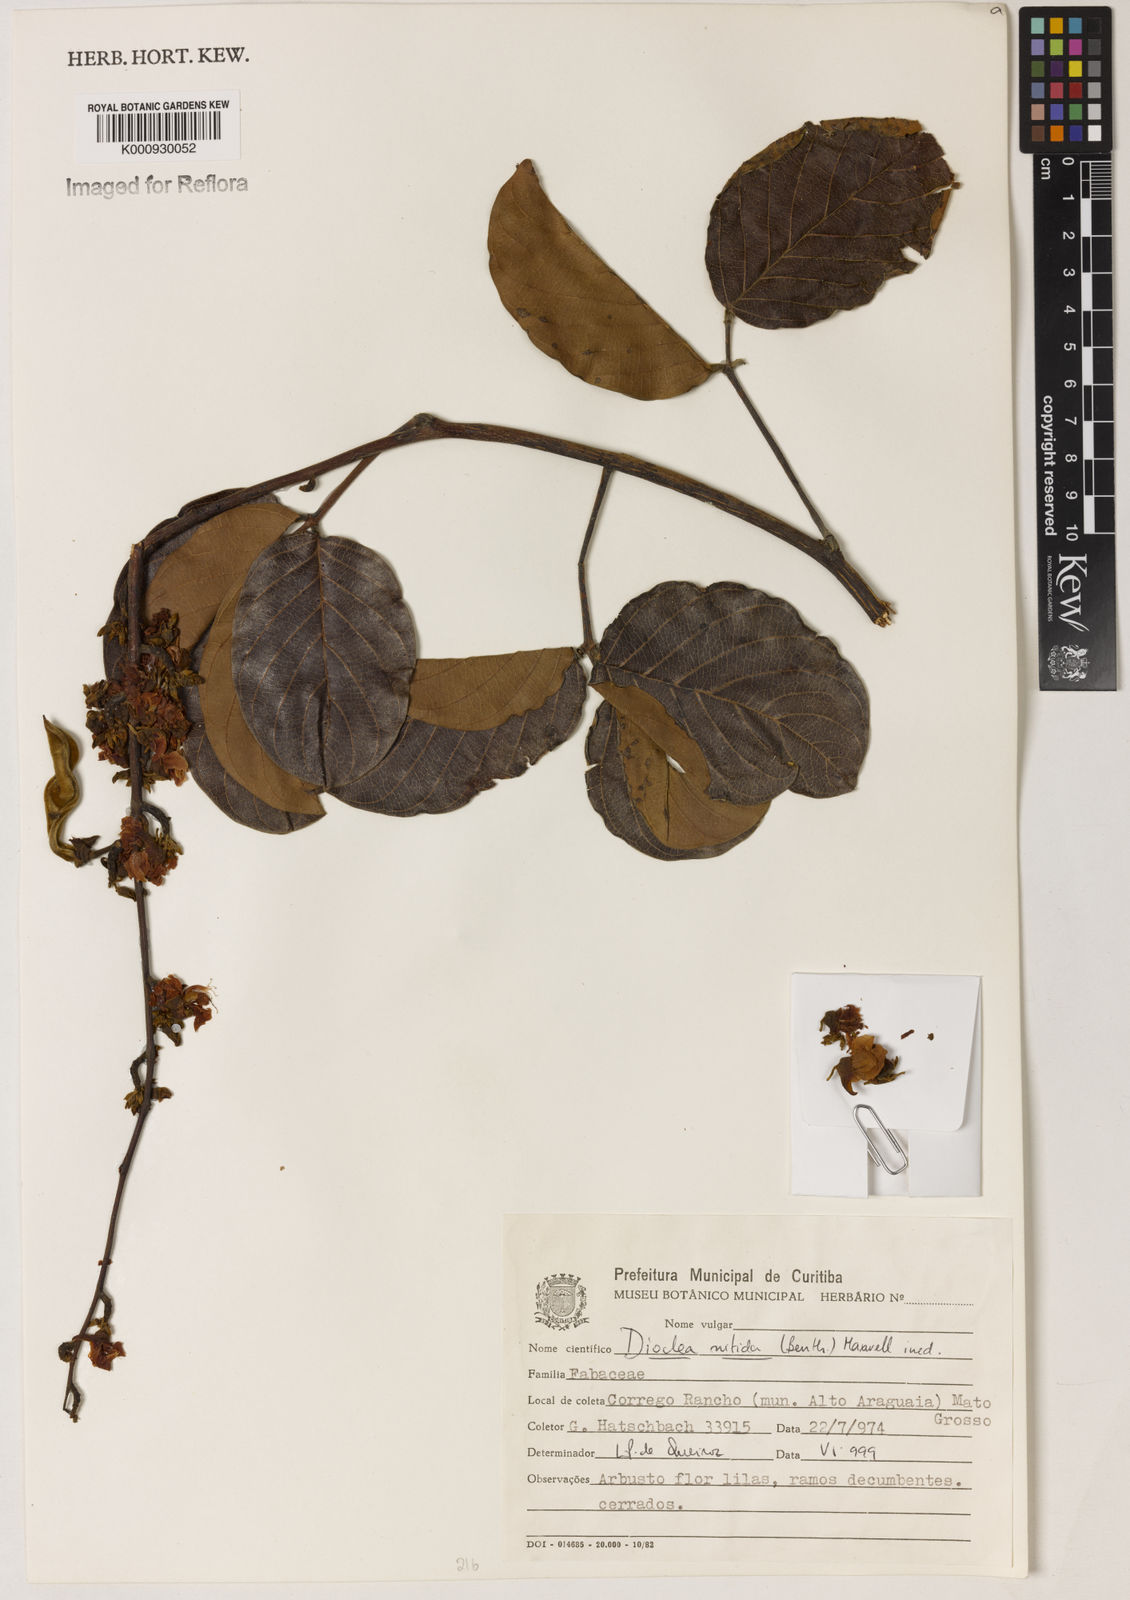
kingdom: Plantae
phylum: Tracheophyta
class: Magnoliopsida
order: Fabales
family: Fabaceae
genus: Dioclea
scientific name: Dioclea
